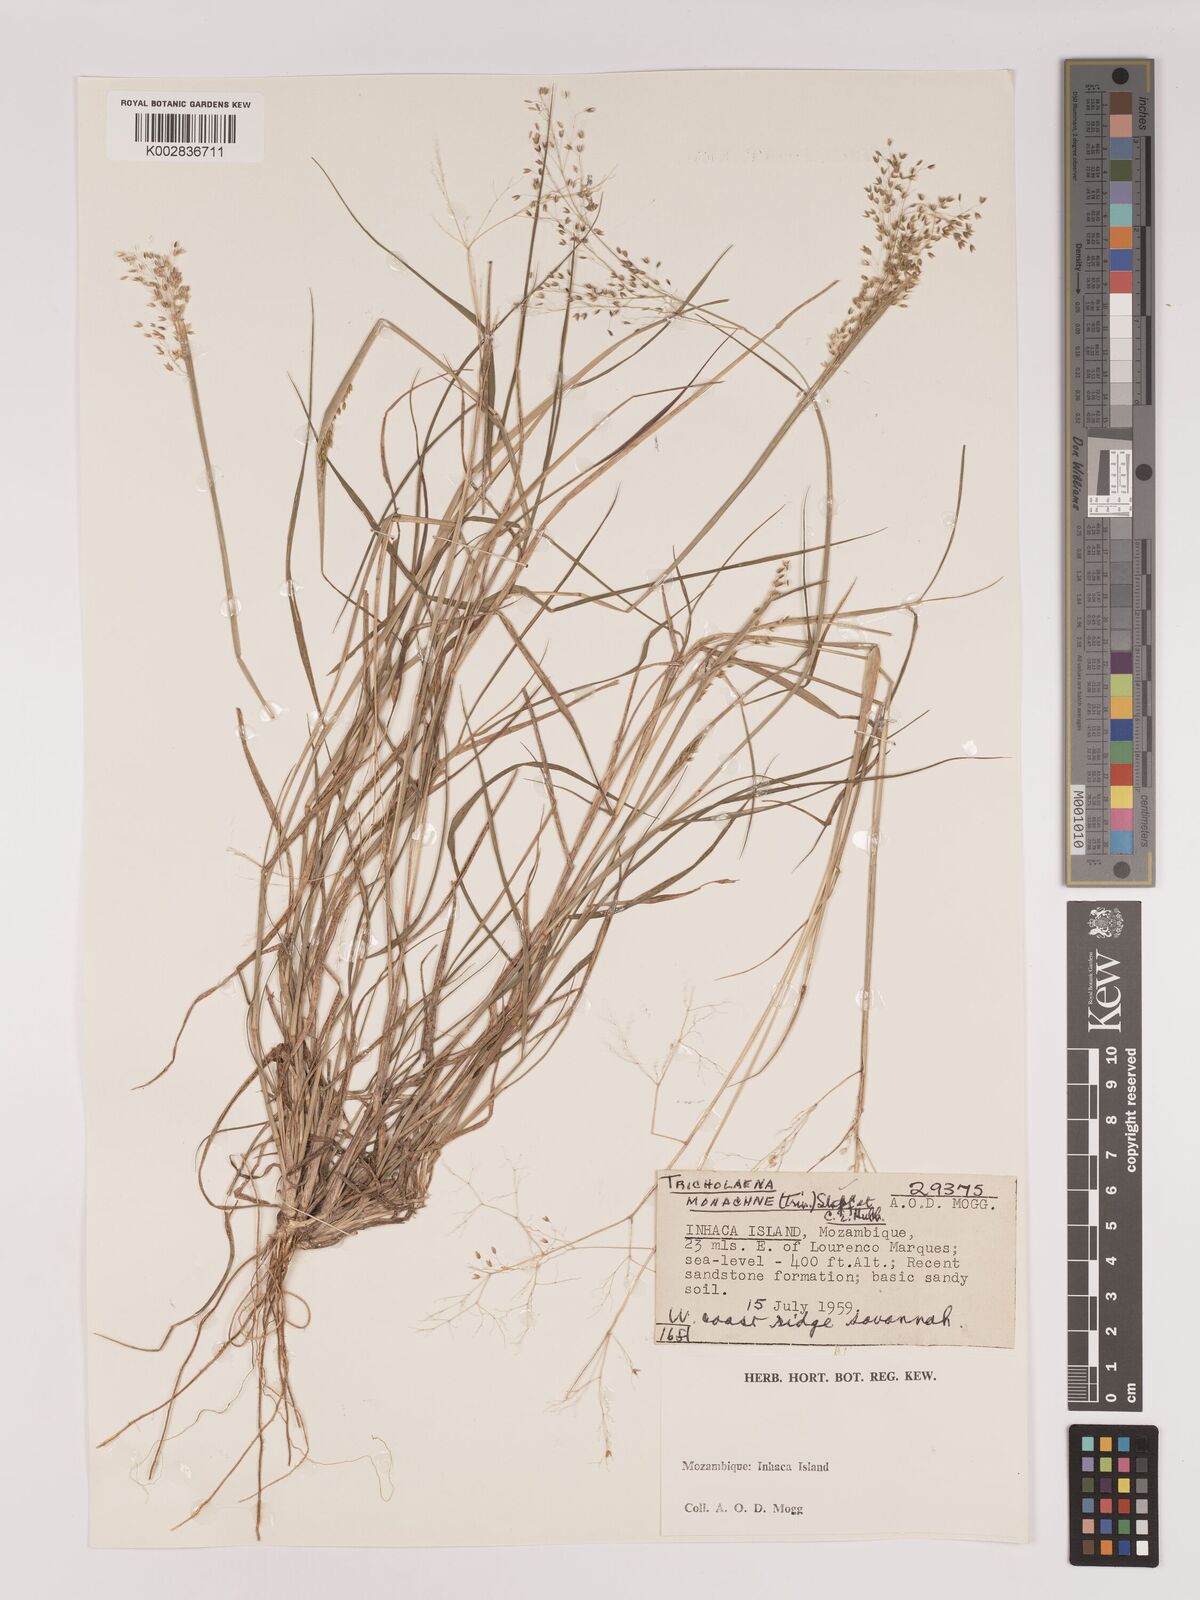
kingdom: Plantae
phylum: Tracheophyta
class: Liliopsida
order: Poales
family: Poaceae
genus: Tricholaena
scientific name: Tricholaena monachne
